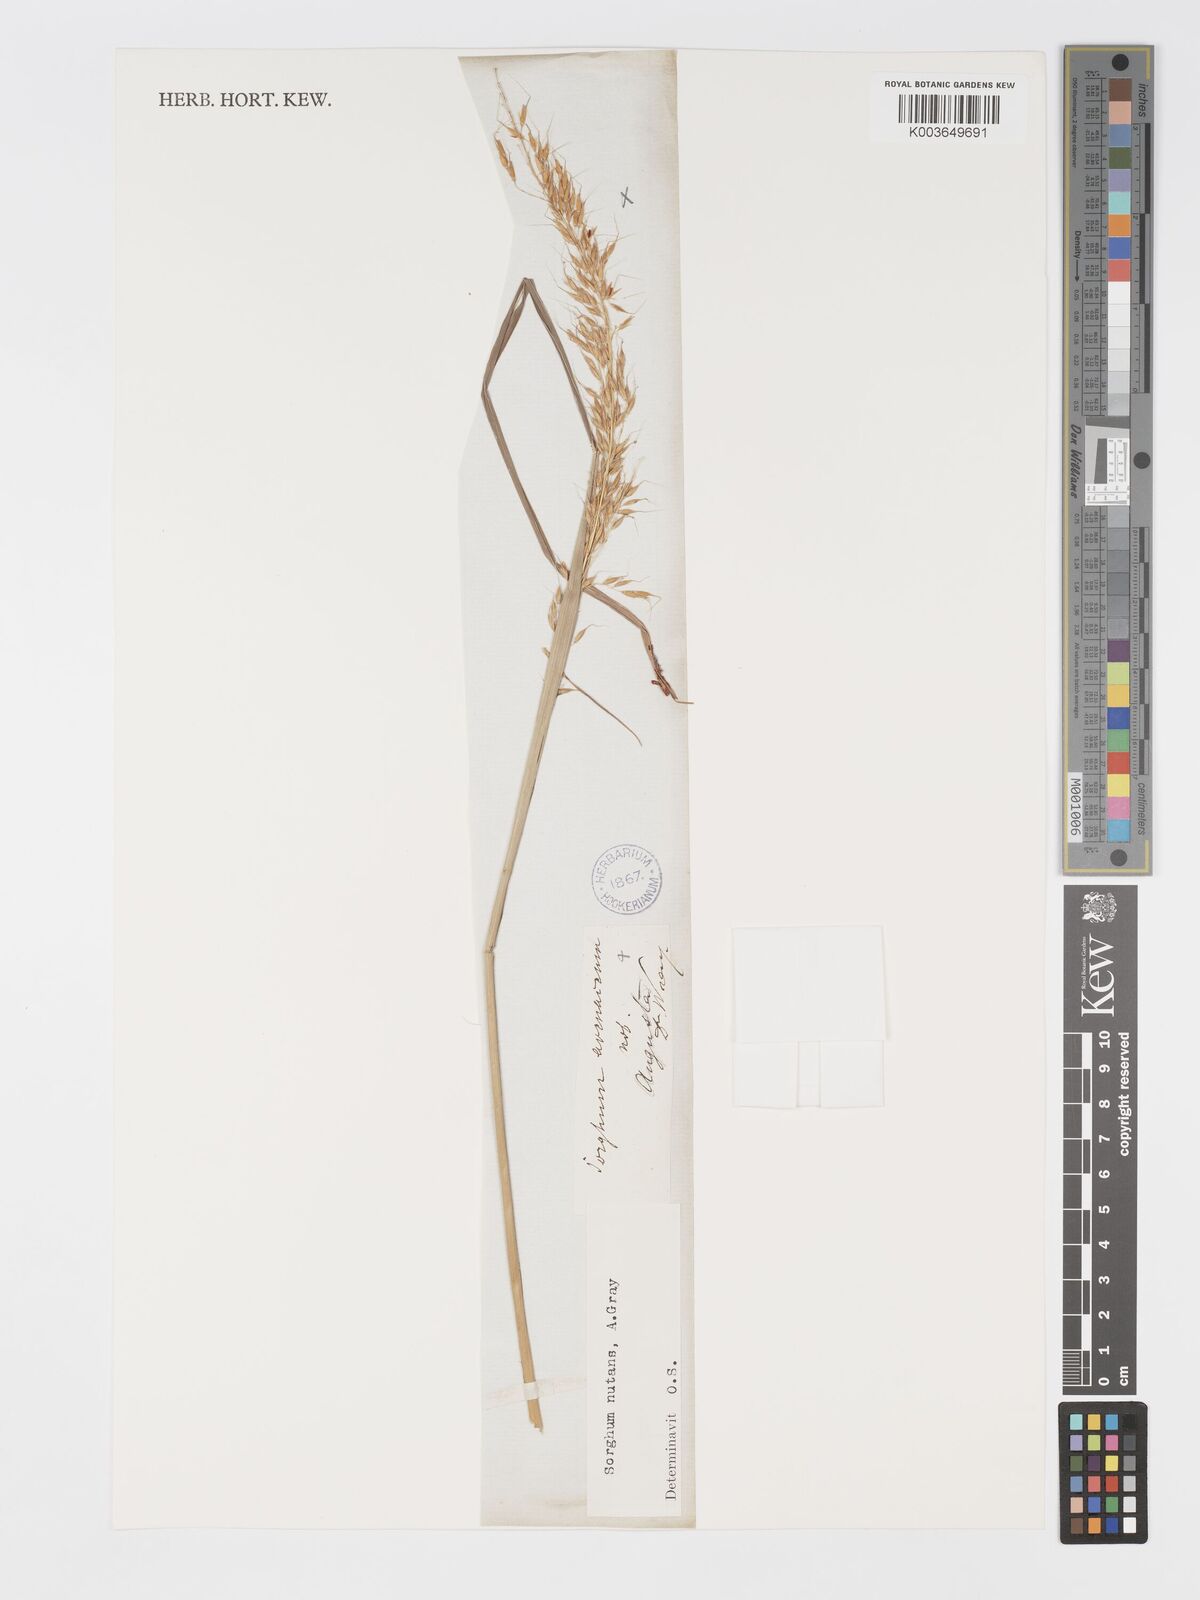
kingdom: Plantae
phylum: Tracheophyta
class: Liliopsida
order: Poales
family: Poaceae
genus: Sorghastrum
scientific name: Sorghastrum nutans
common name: Indian grass
